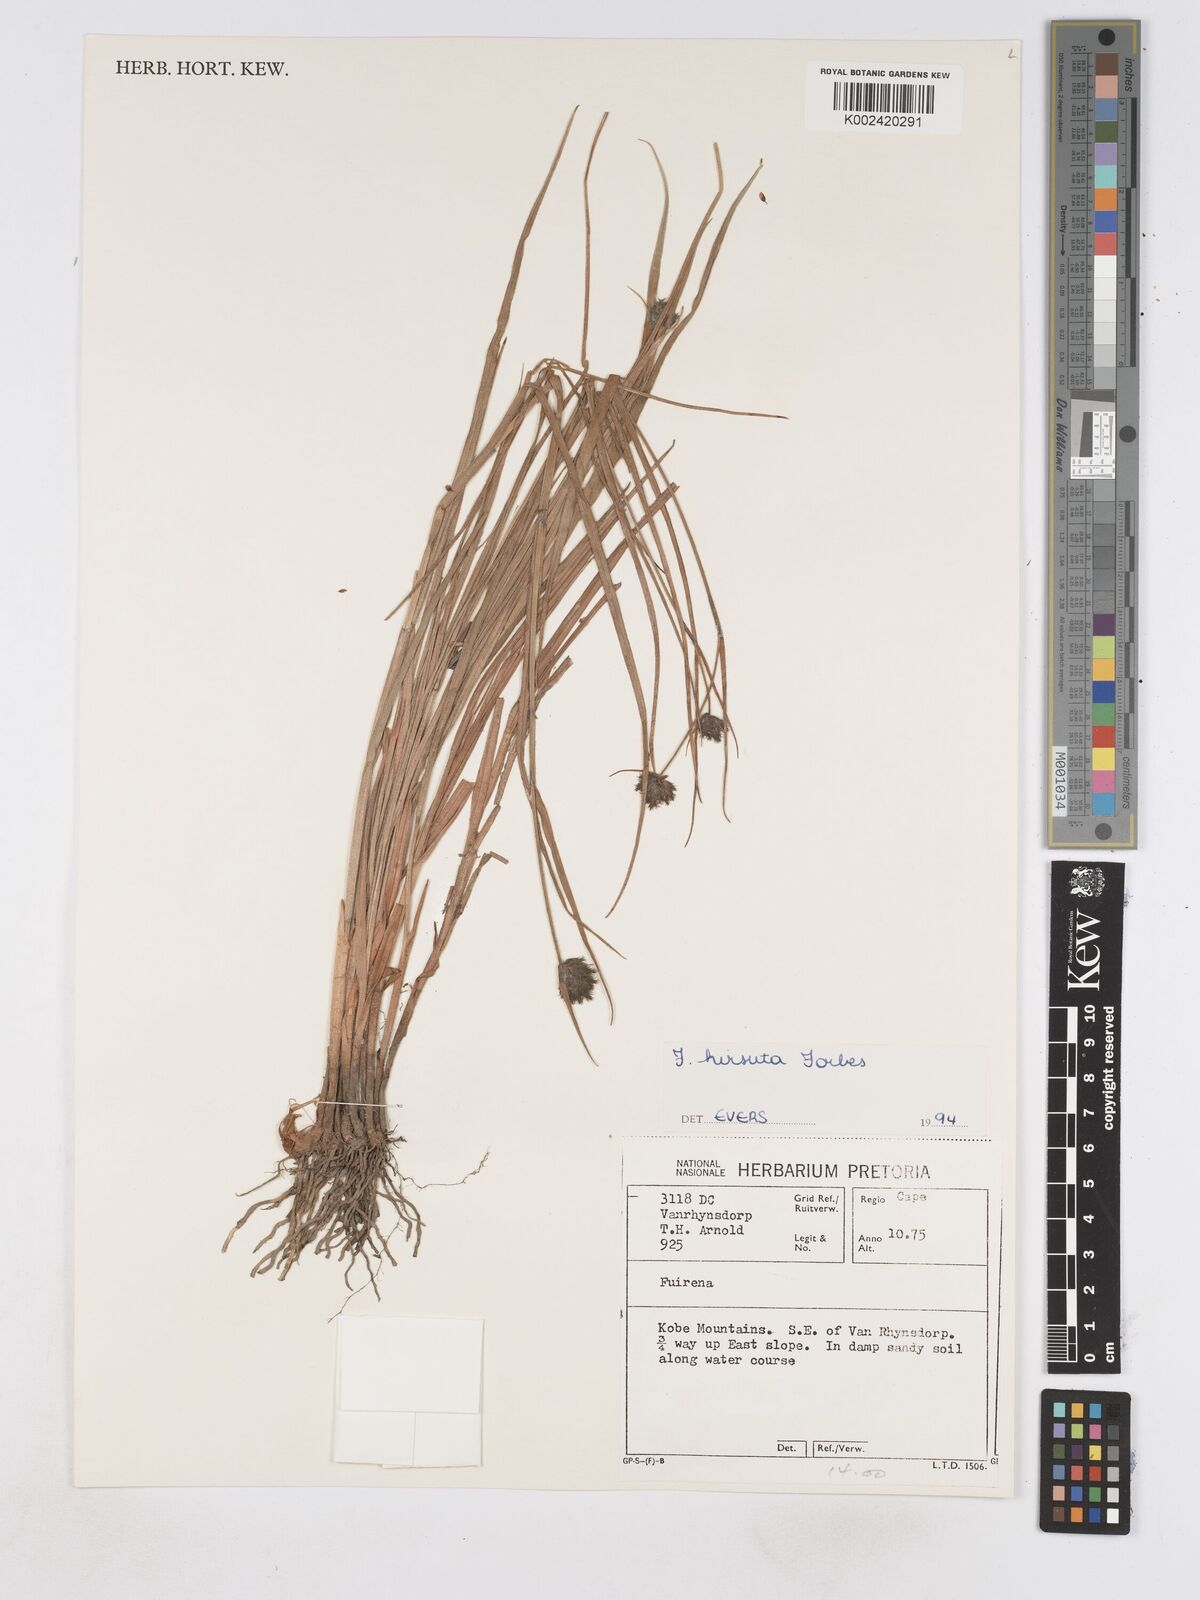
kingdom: Plantae
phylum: Tracheophyta
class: Liliopsida
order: Poales
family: Cyperaceae
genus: Fuirena
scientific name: Fuirena hirsuta
